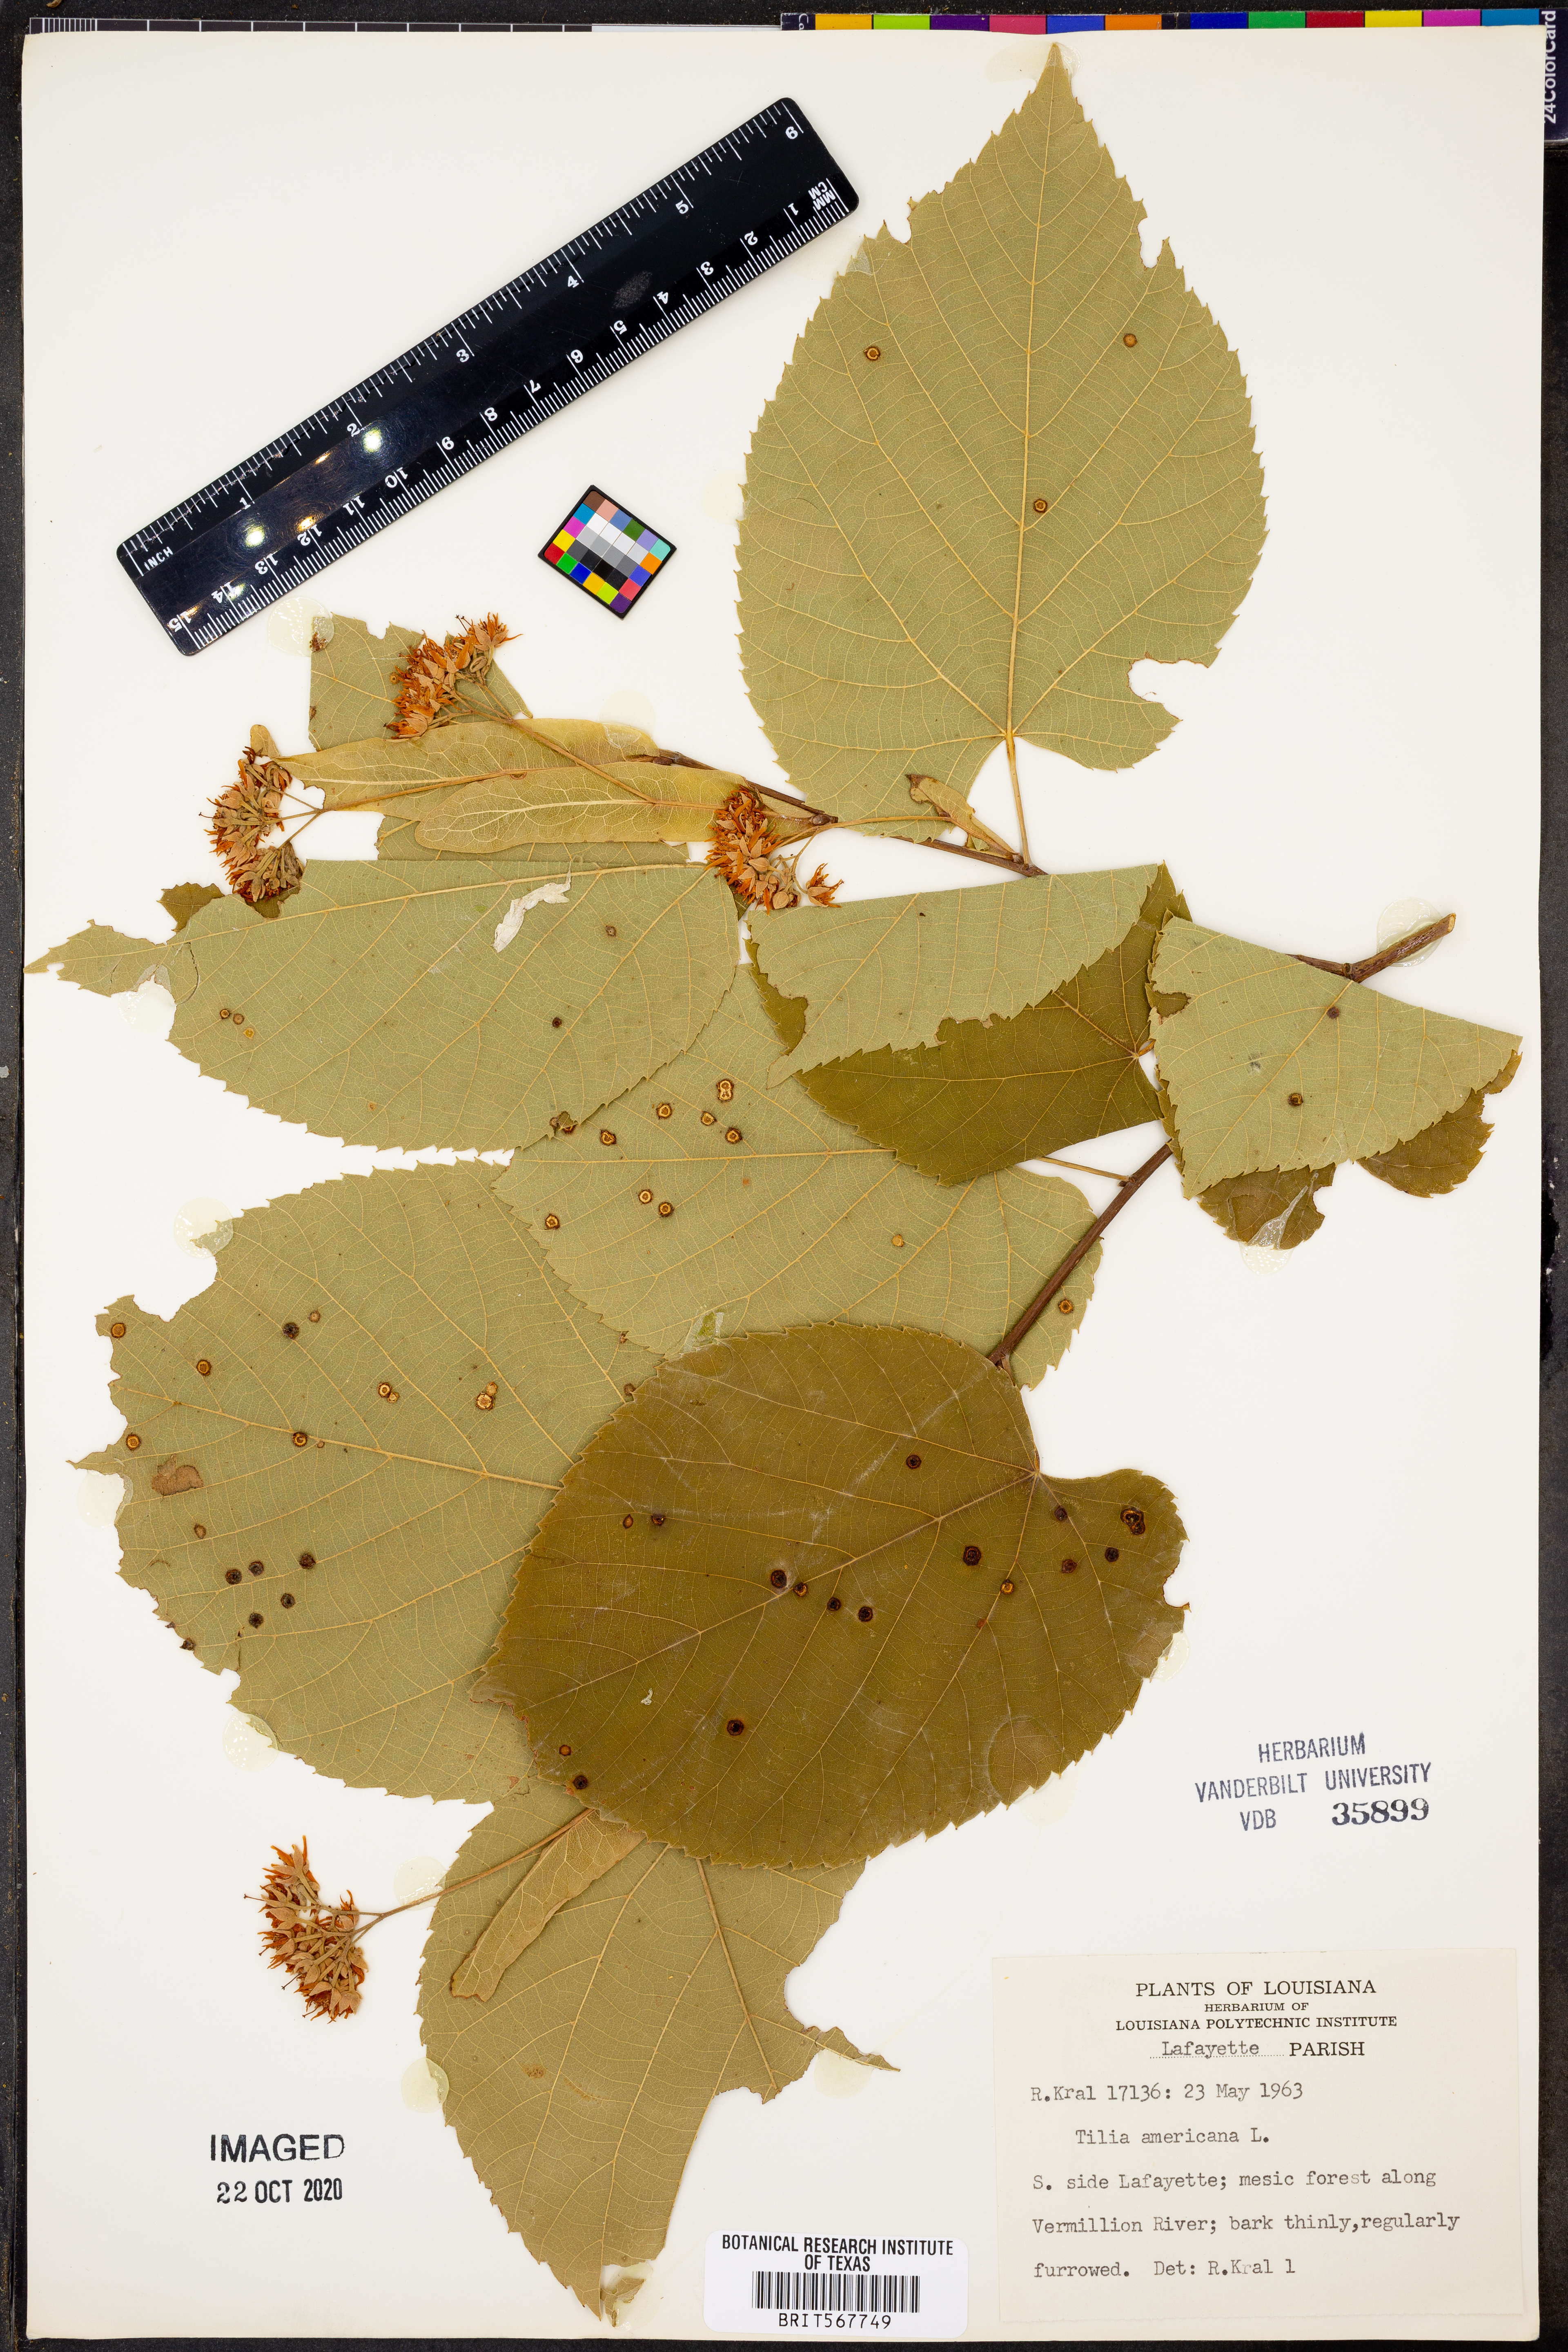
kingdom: Plantae
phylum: Tracheophyta
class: Magnoliopsida
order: Malvales
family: Malvaceae
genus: Tilia
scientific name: Tilia americana
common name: Basswood
